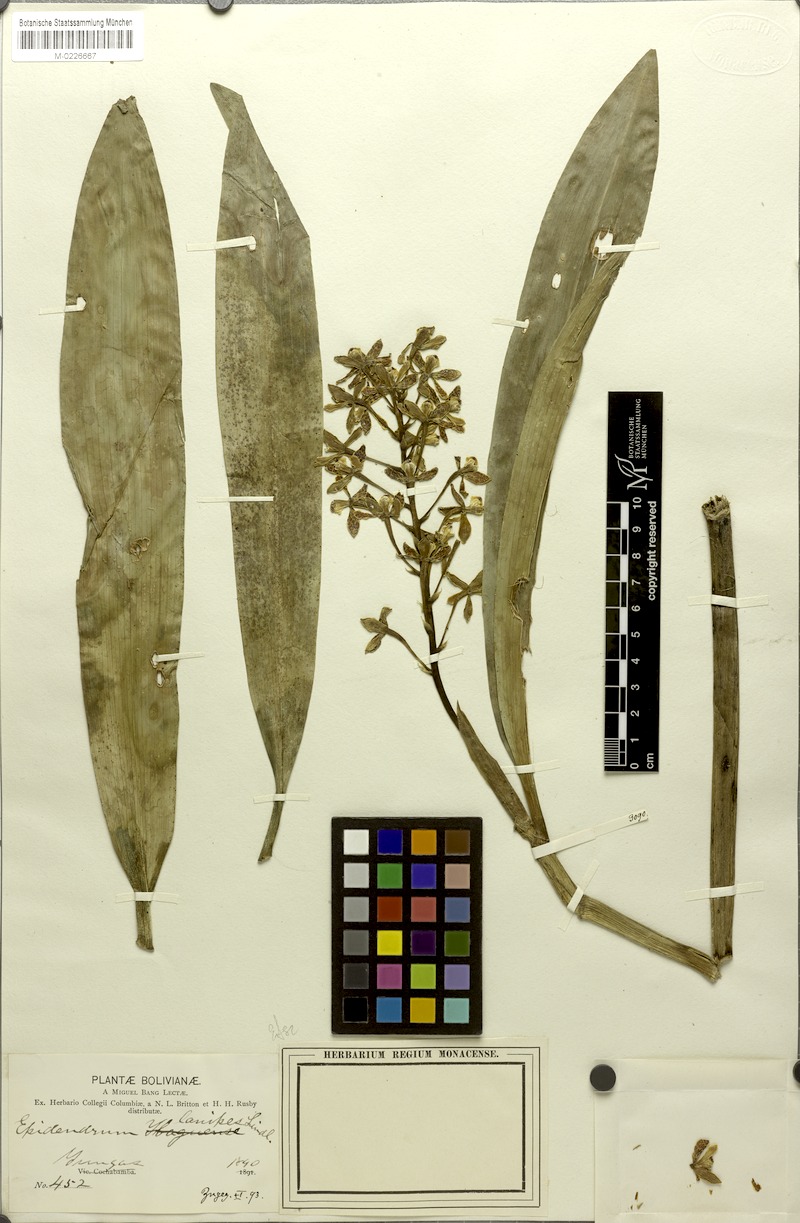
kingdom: Plantae
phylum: Tracheophyta
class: Liliopsida
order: Asparagales
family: Orchidaceae
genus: Epidendrum
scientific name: Epidendrum lanipes
